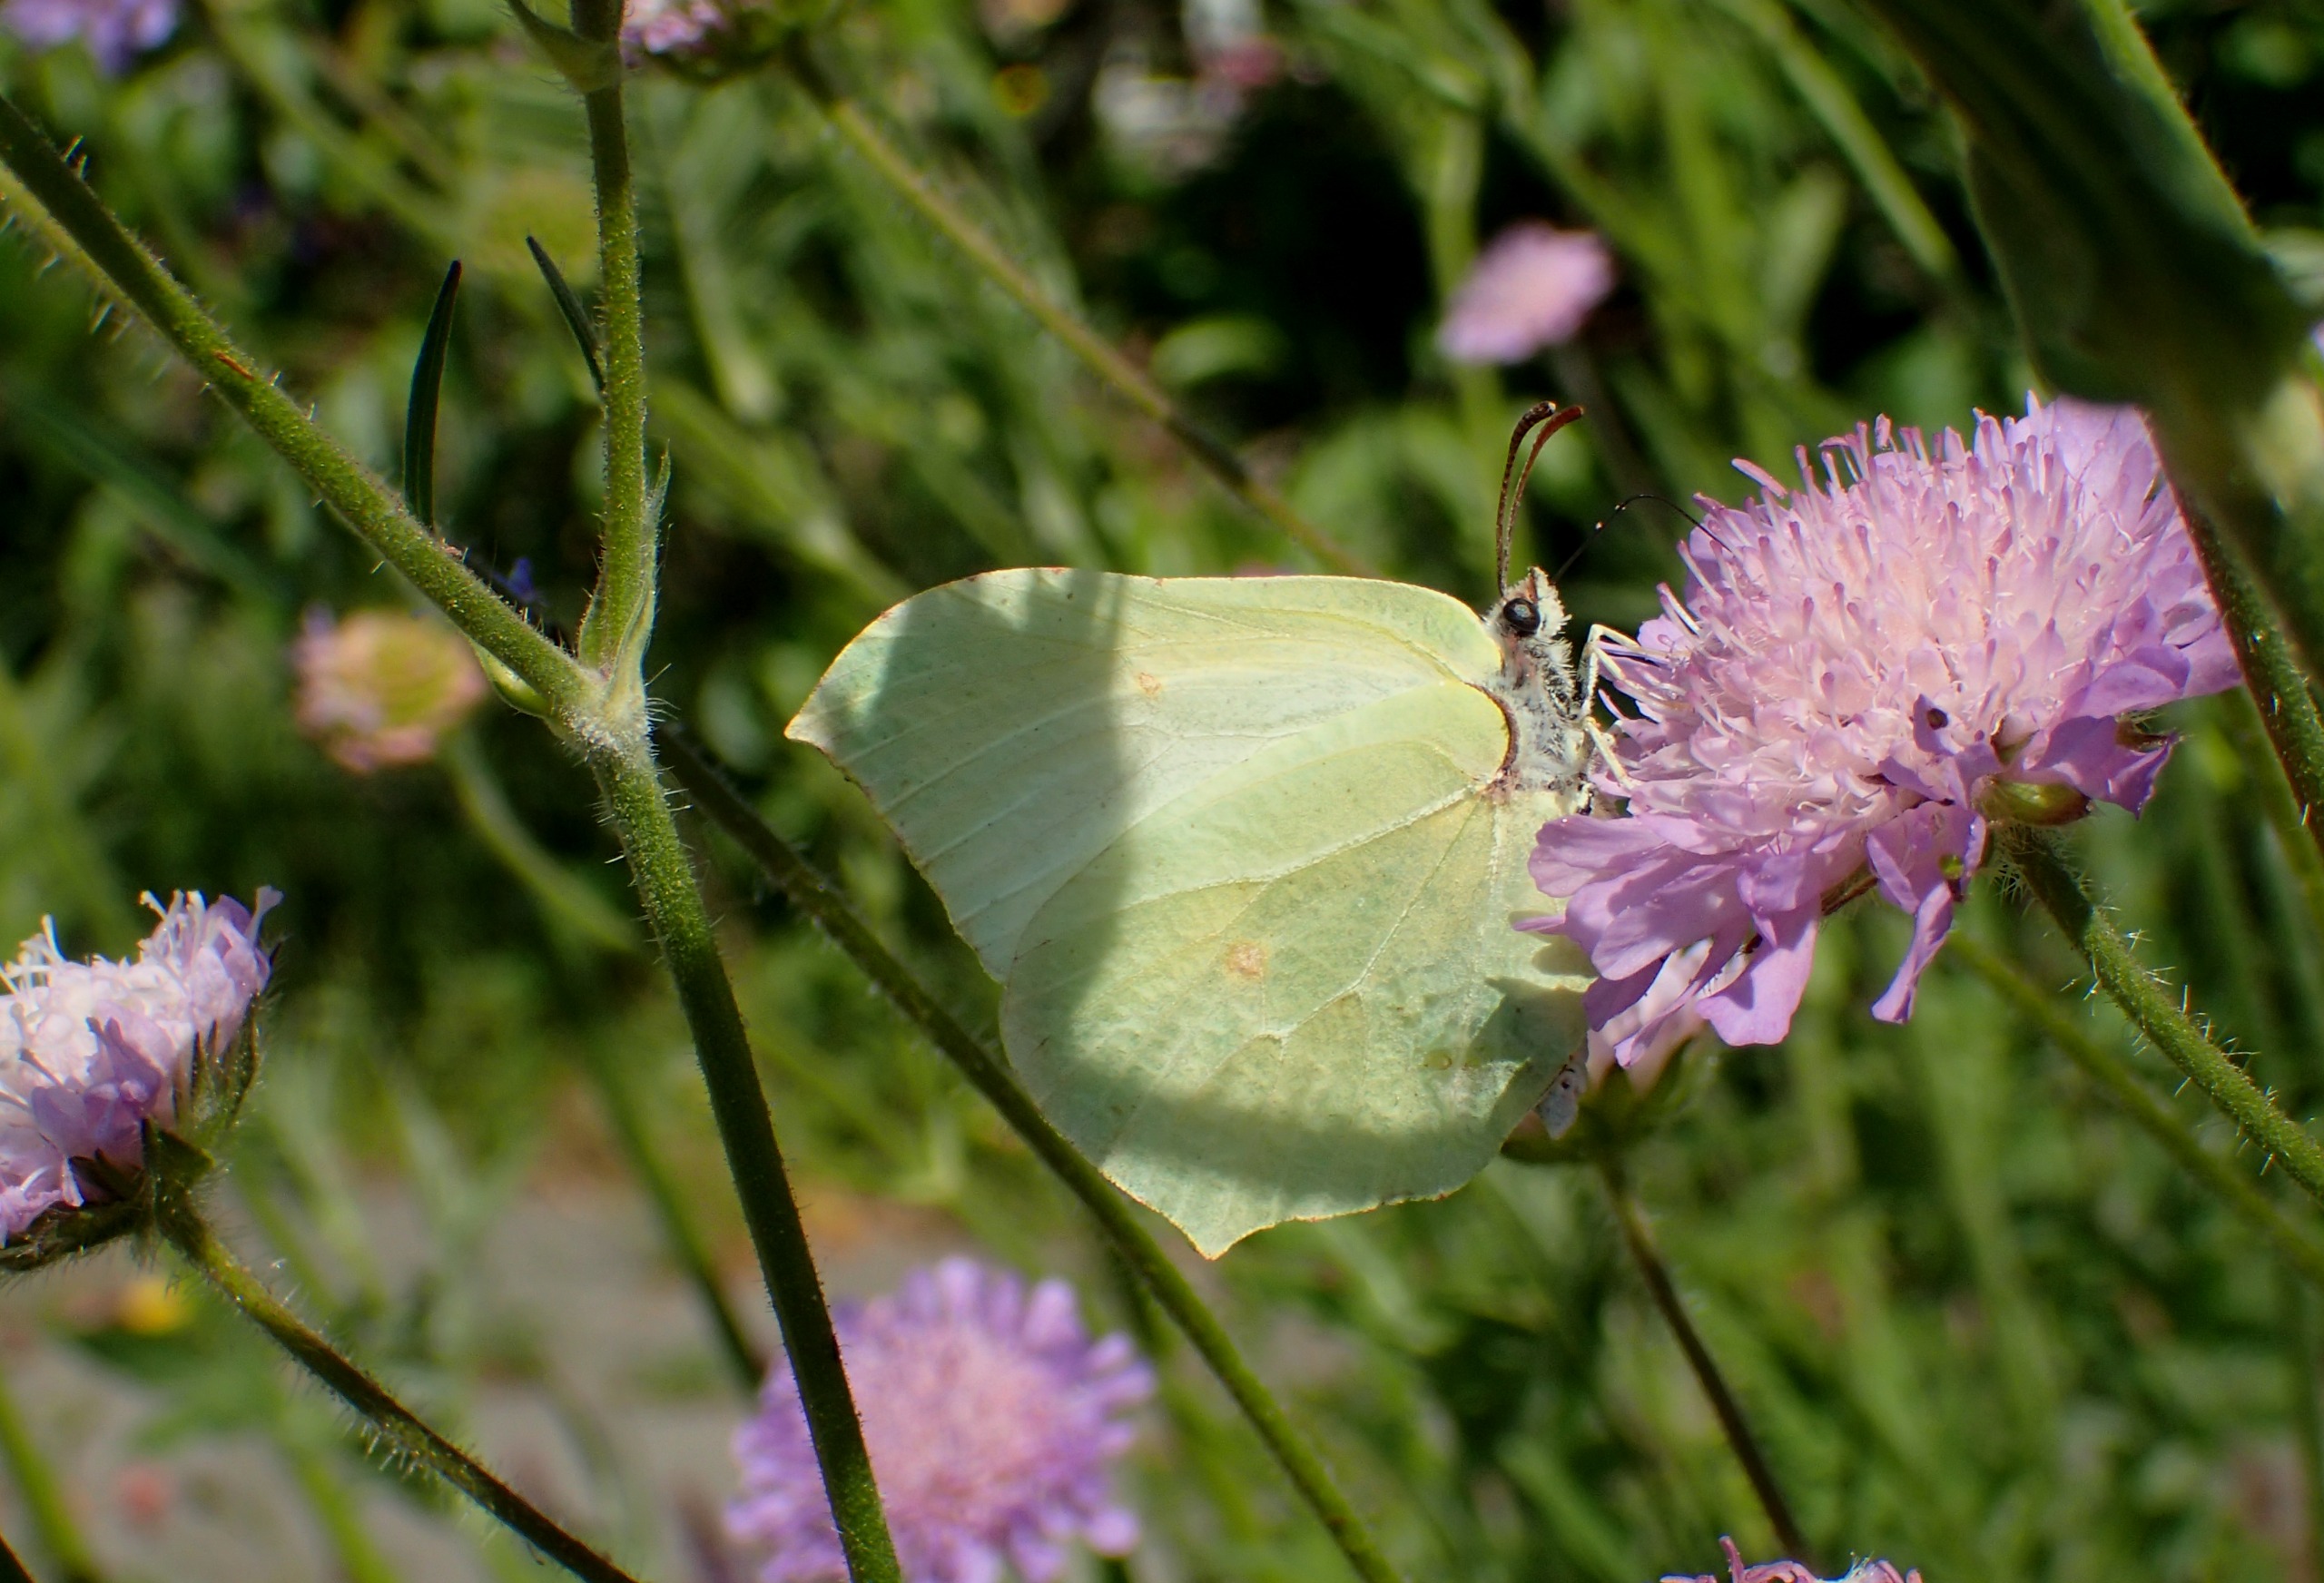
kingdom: Animalia
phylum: Arthropoda
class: Insecta
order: Lepidoptera
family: Pieridae
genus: Gonepteryx
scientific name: Gonepteryx rhamni
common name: Citronsommerfugl
